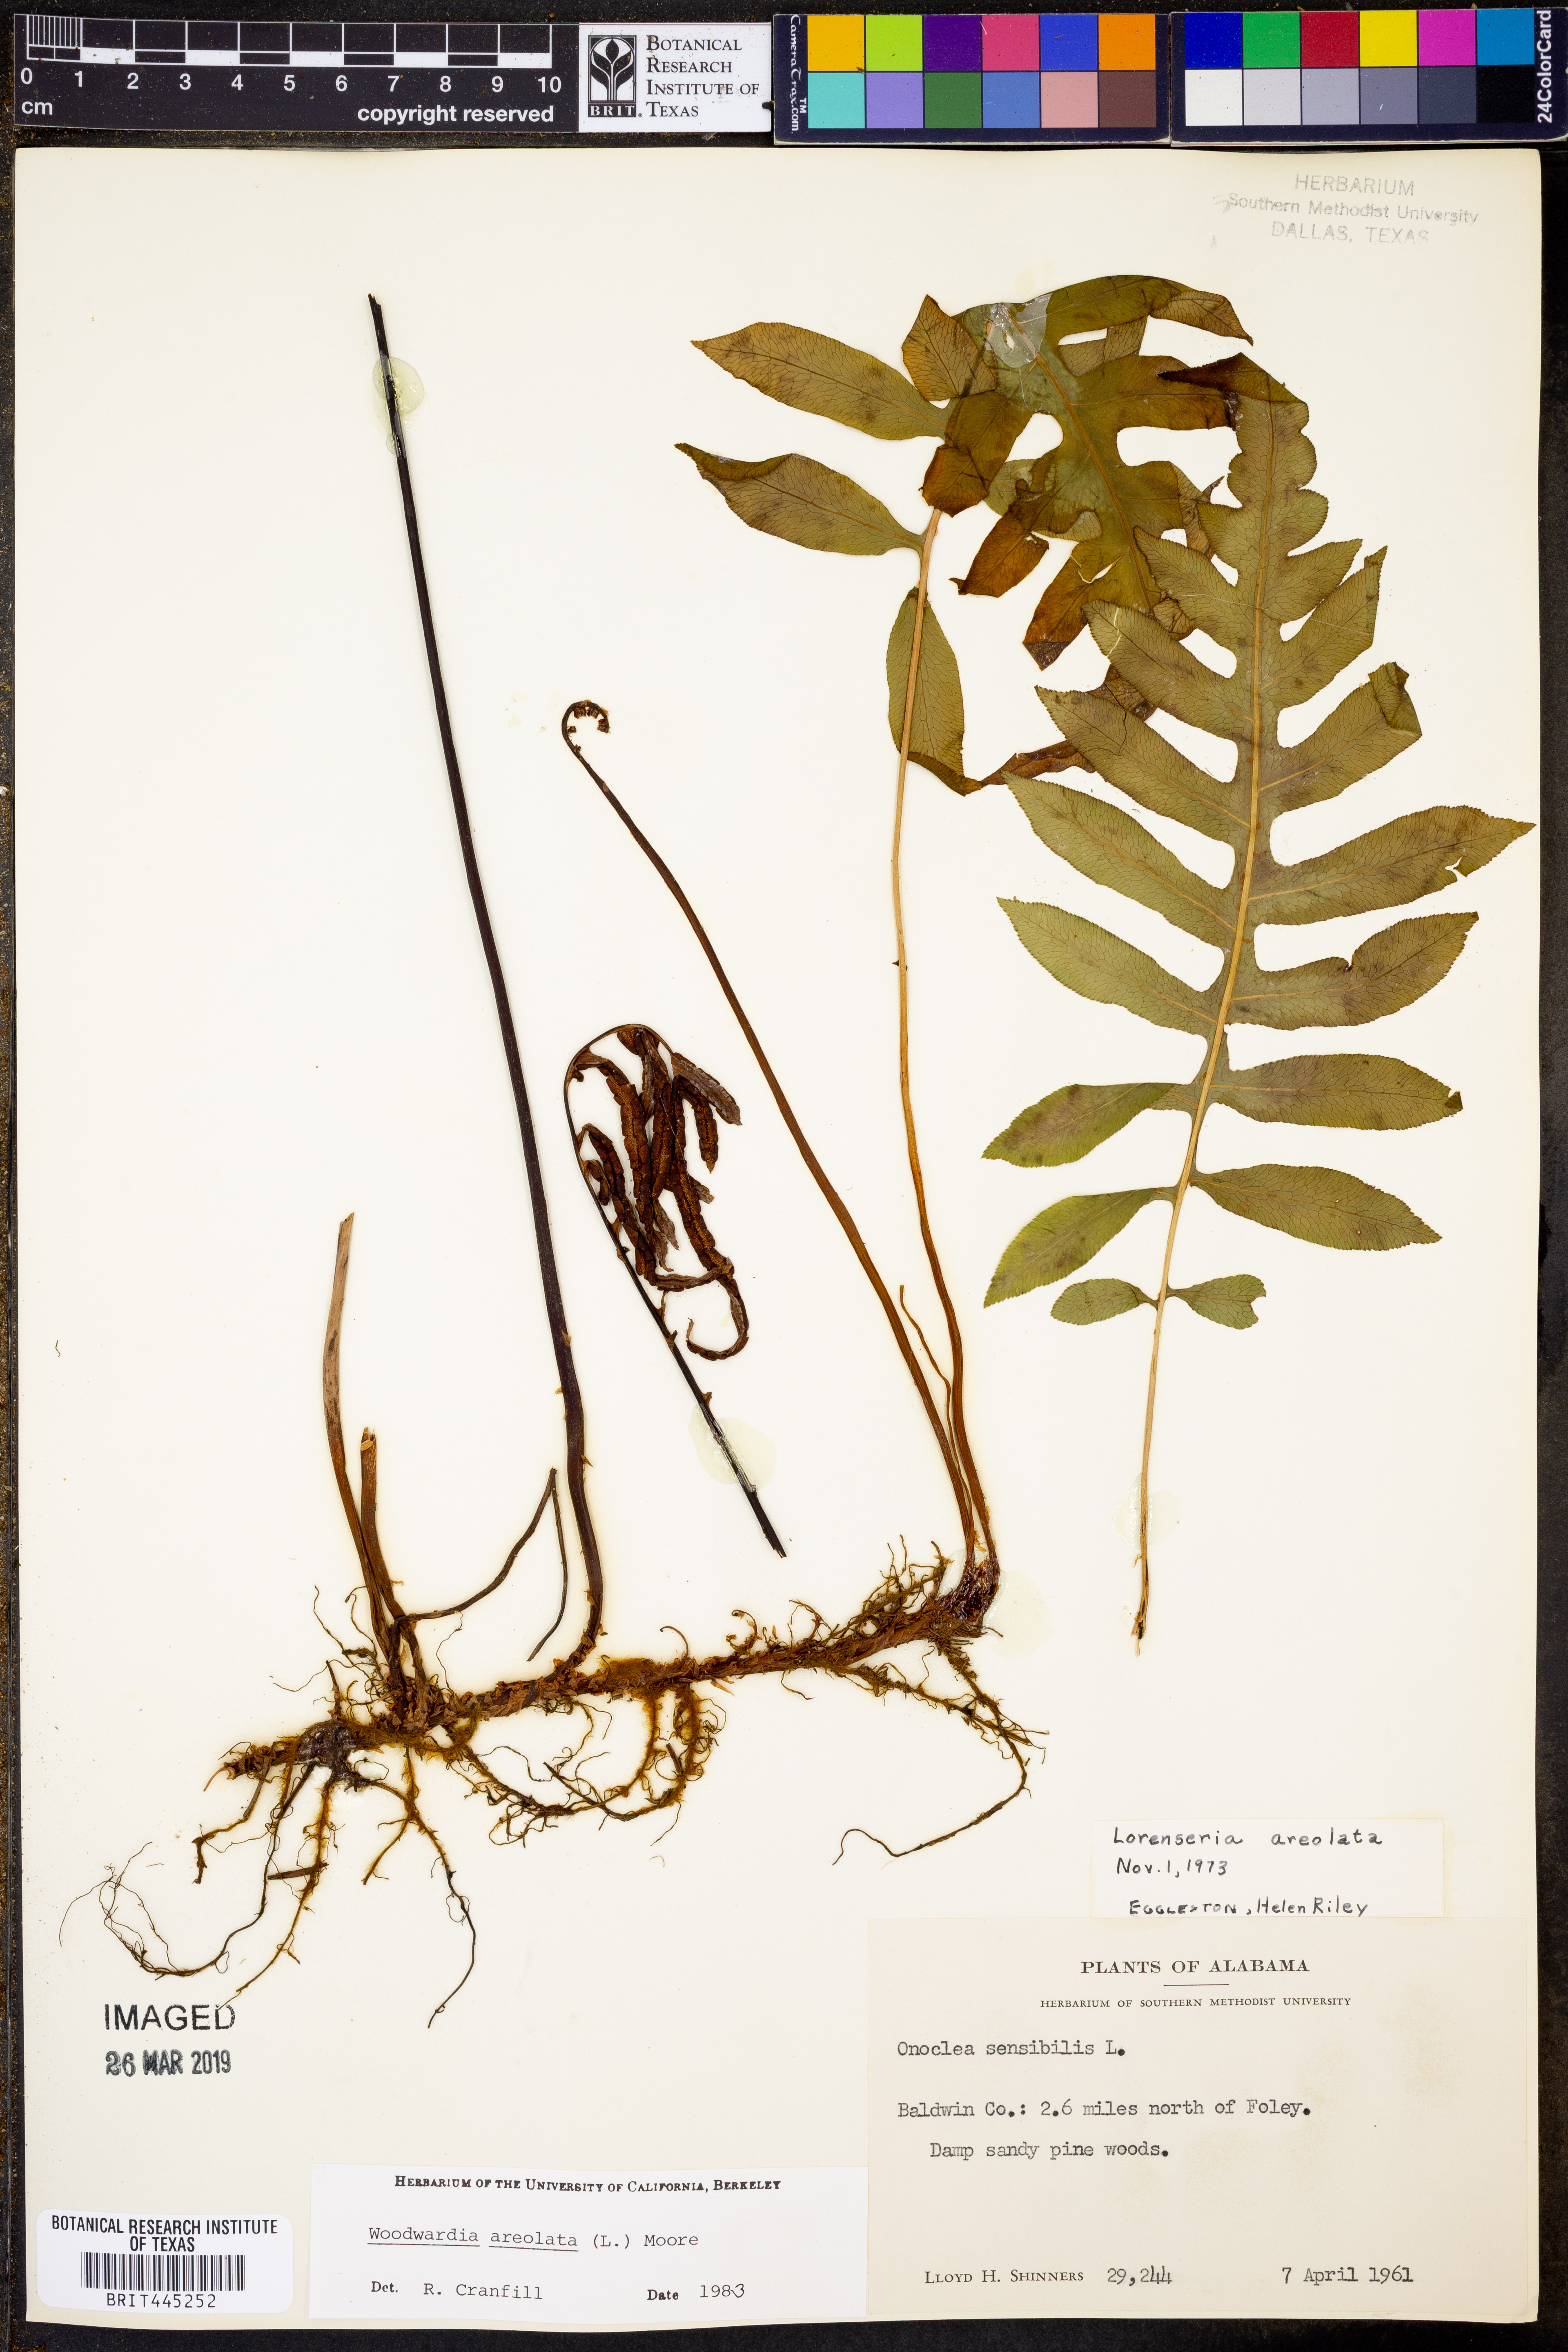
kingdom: Plantae
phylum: Tracheophyta
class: Polypodiopsida
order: Polypodiales
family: Blechnaceae
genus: Lorinseria
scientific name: Lorinseria areolata
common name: Dwarf chain fern
